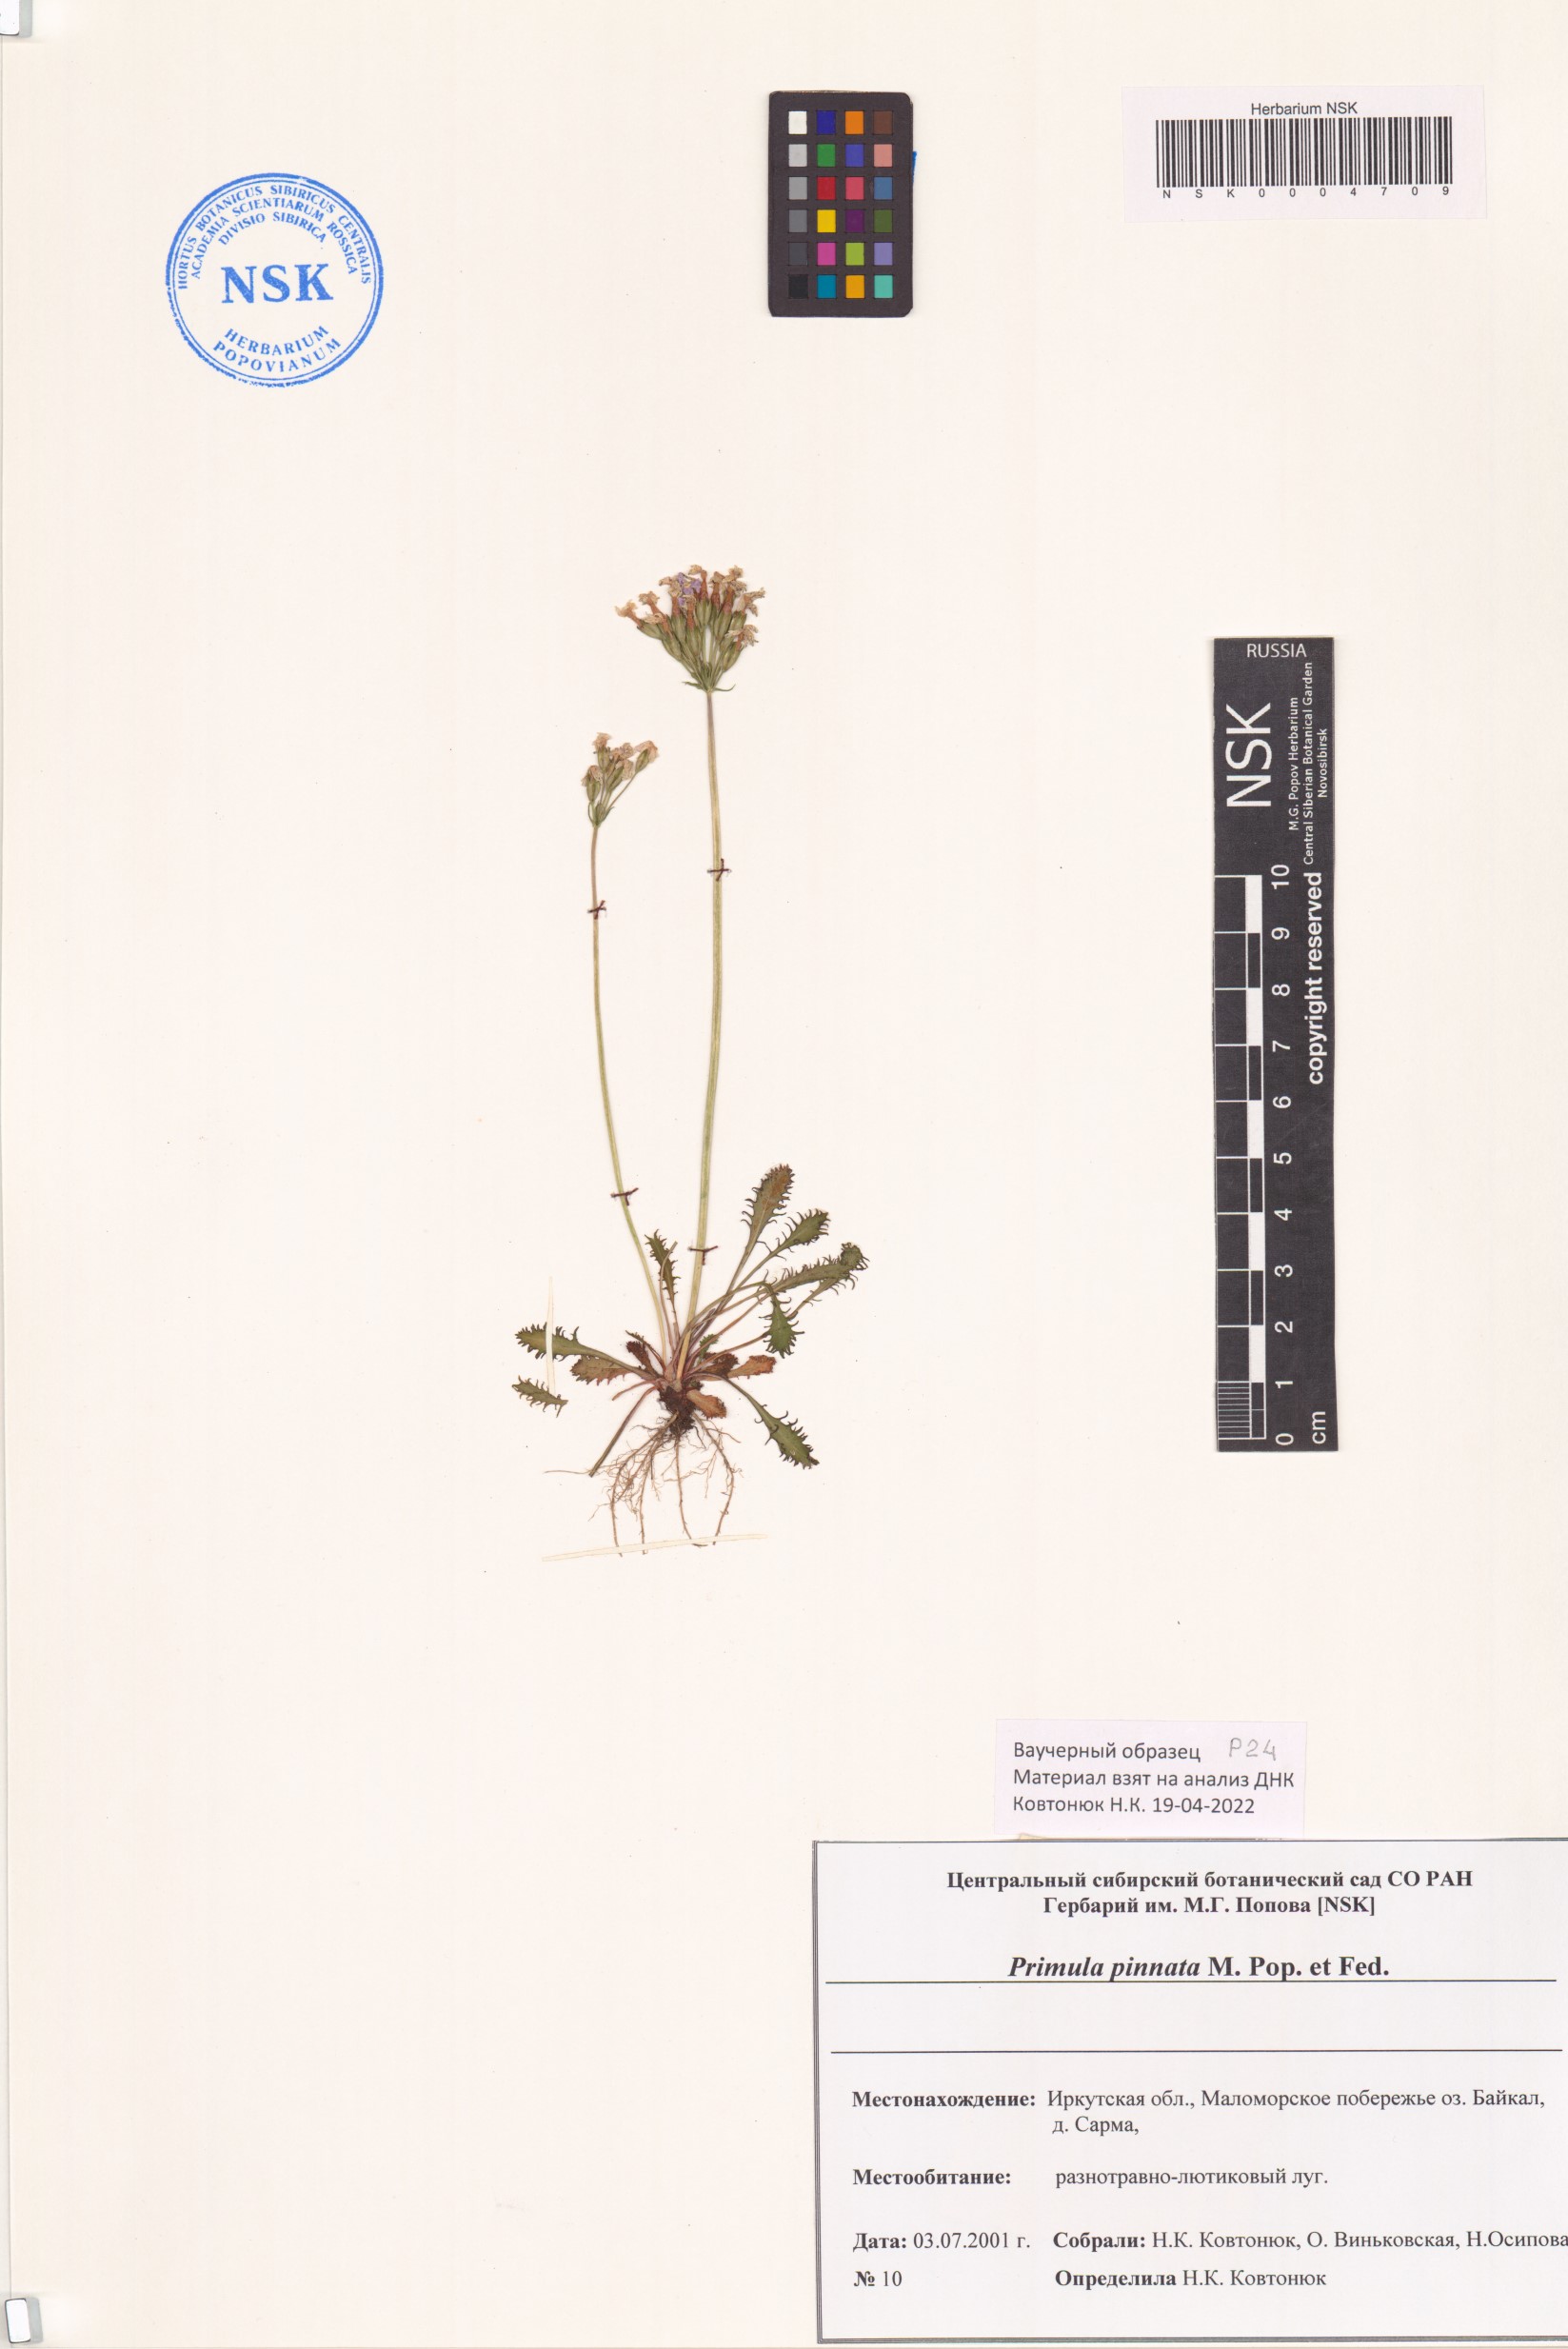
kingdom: Plantae
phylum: Tracheophyta
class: Magnoliopsida
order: Ericales
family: Primulaceae
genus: Primula
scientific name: Primula pinnata
